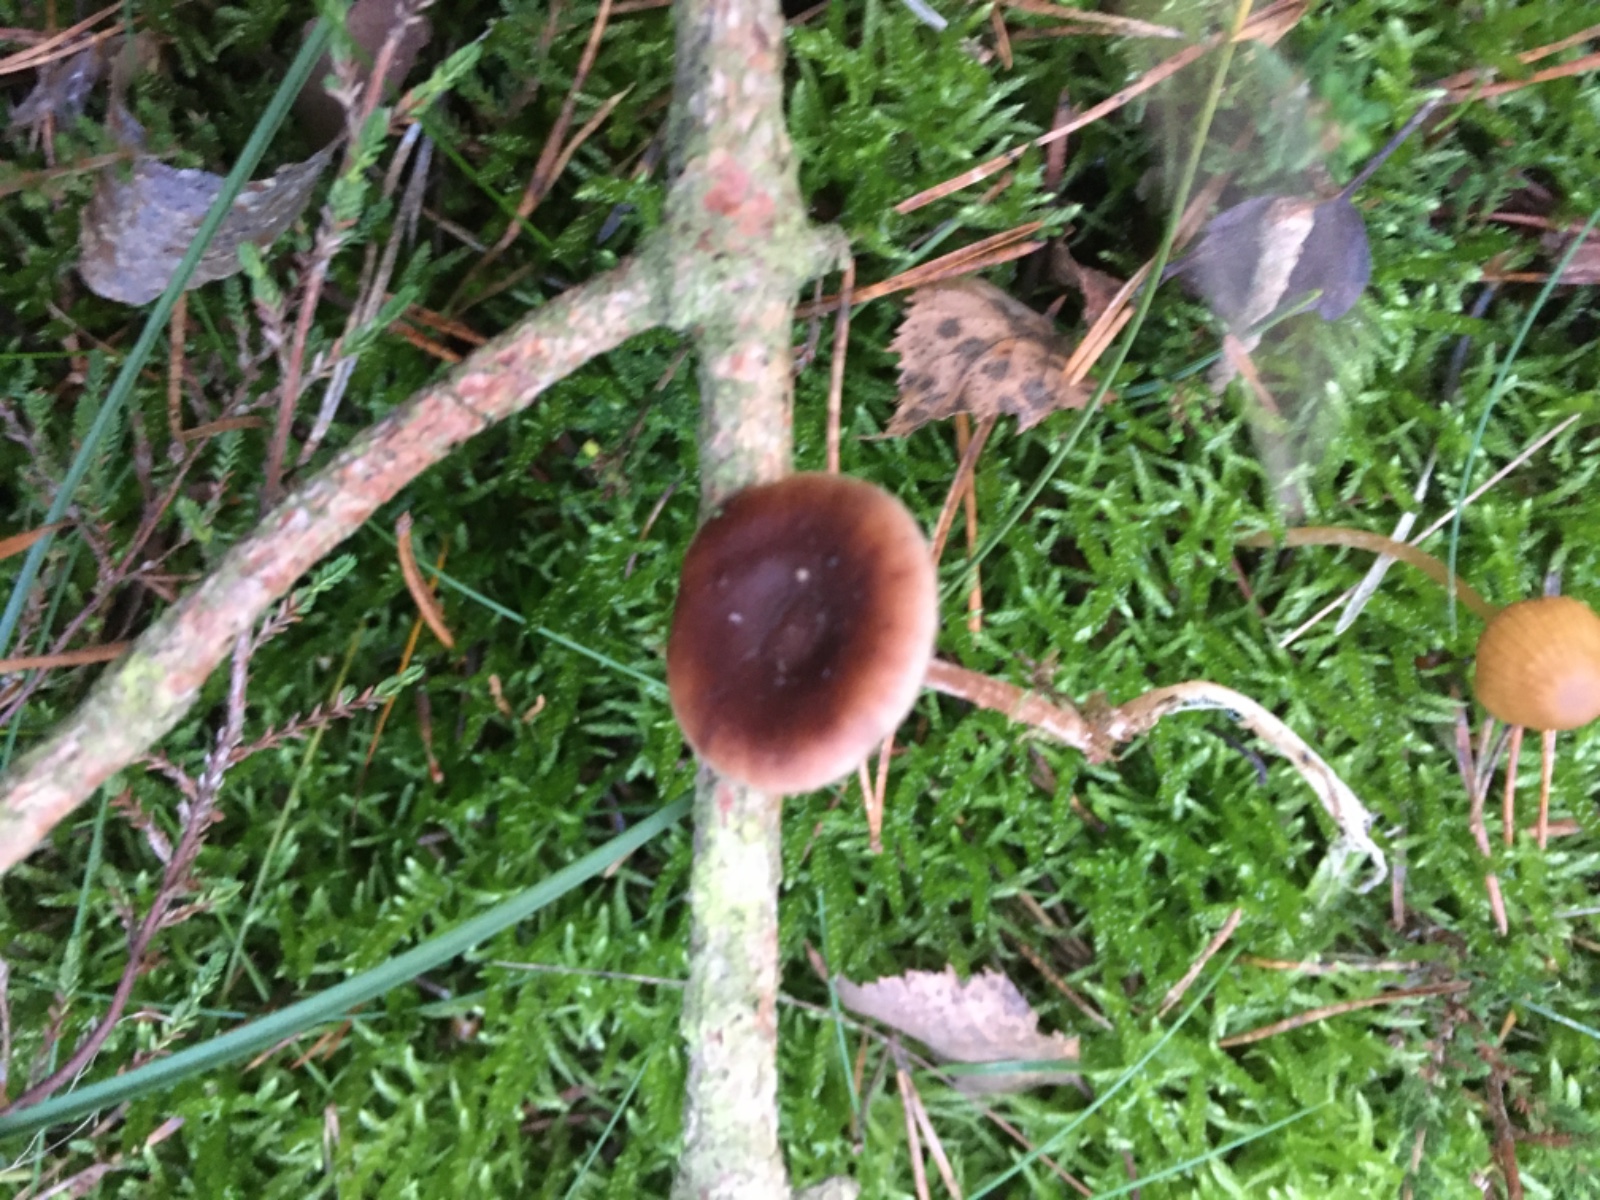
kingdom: Fungi
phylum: Basidiomycota
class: Agaricomycetes
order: Agaricales
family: Marasmiaceae
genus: Baeospora
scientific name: Baeospora myosura
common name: koglebruskhat
